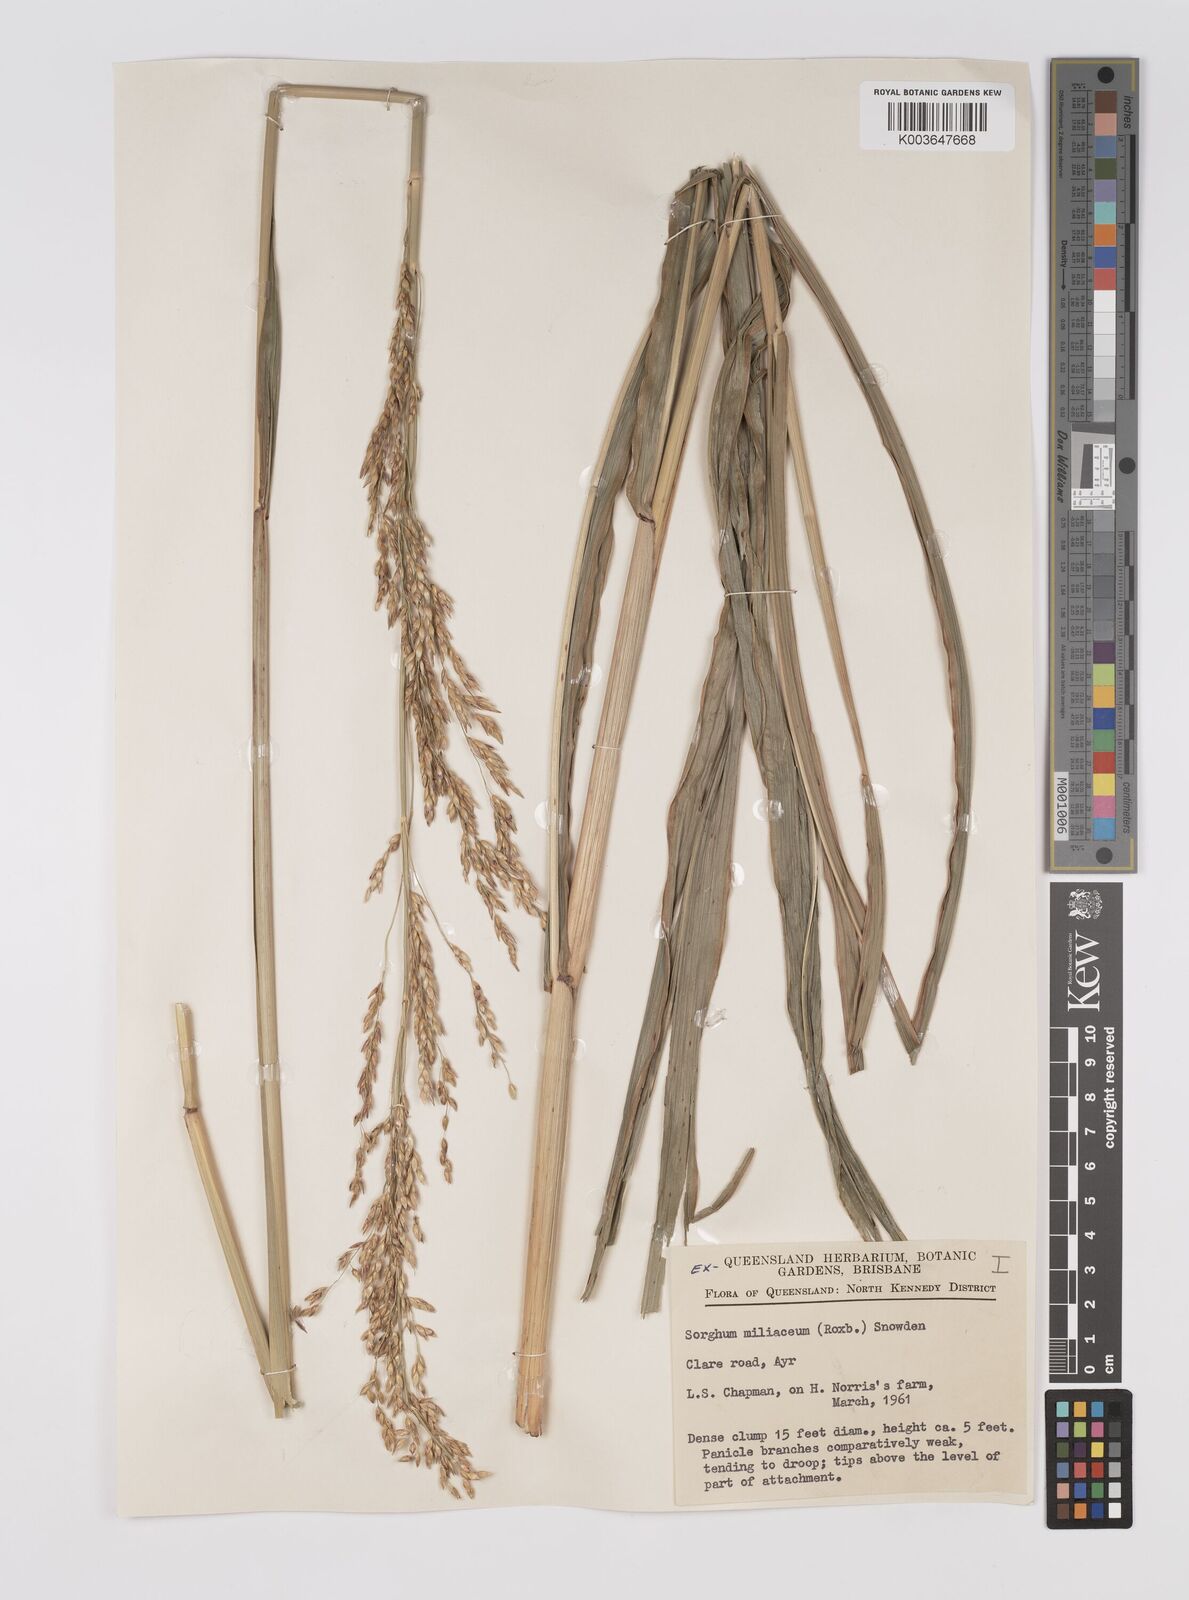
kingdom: Plantae
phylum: Tracheophyta
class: Liliopsida
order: Poales
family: Poaceae
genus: Sorghum
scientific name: Sorghum halepense
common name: Johnson-grass
